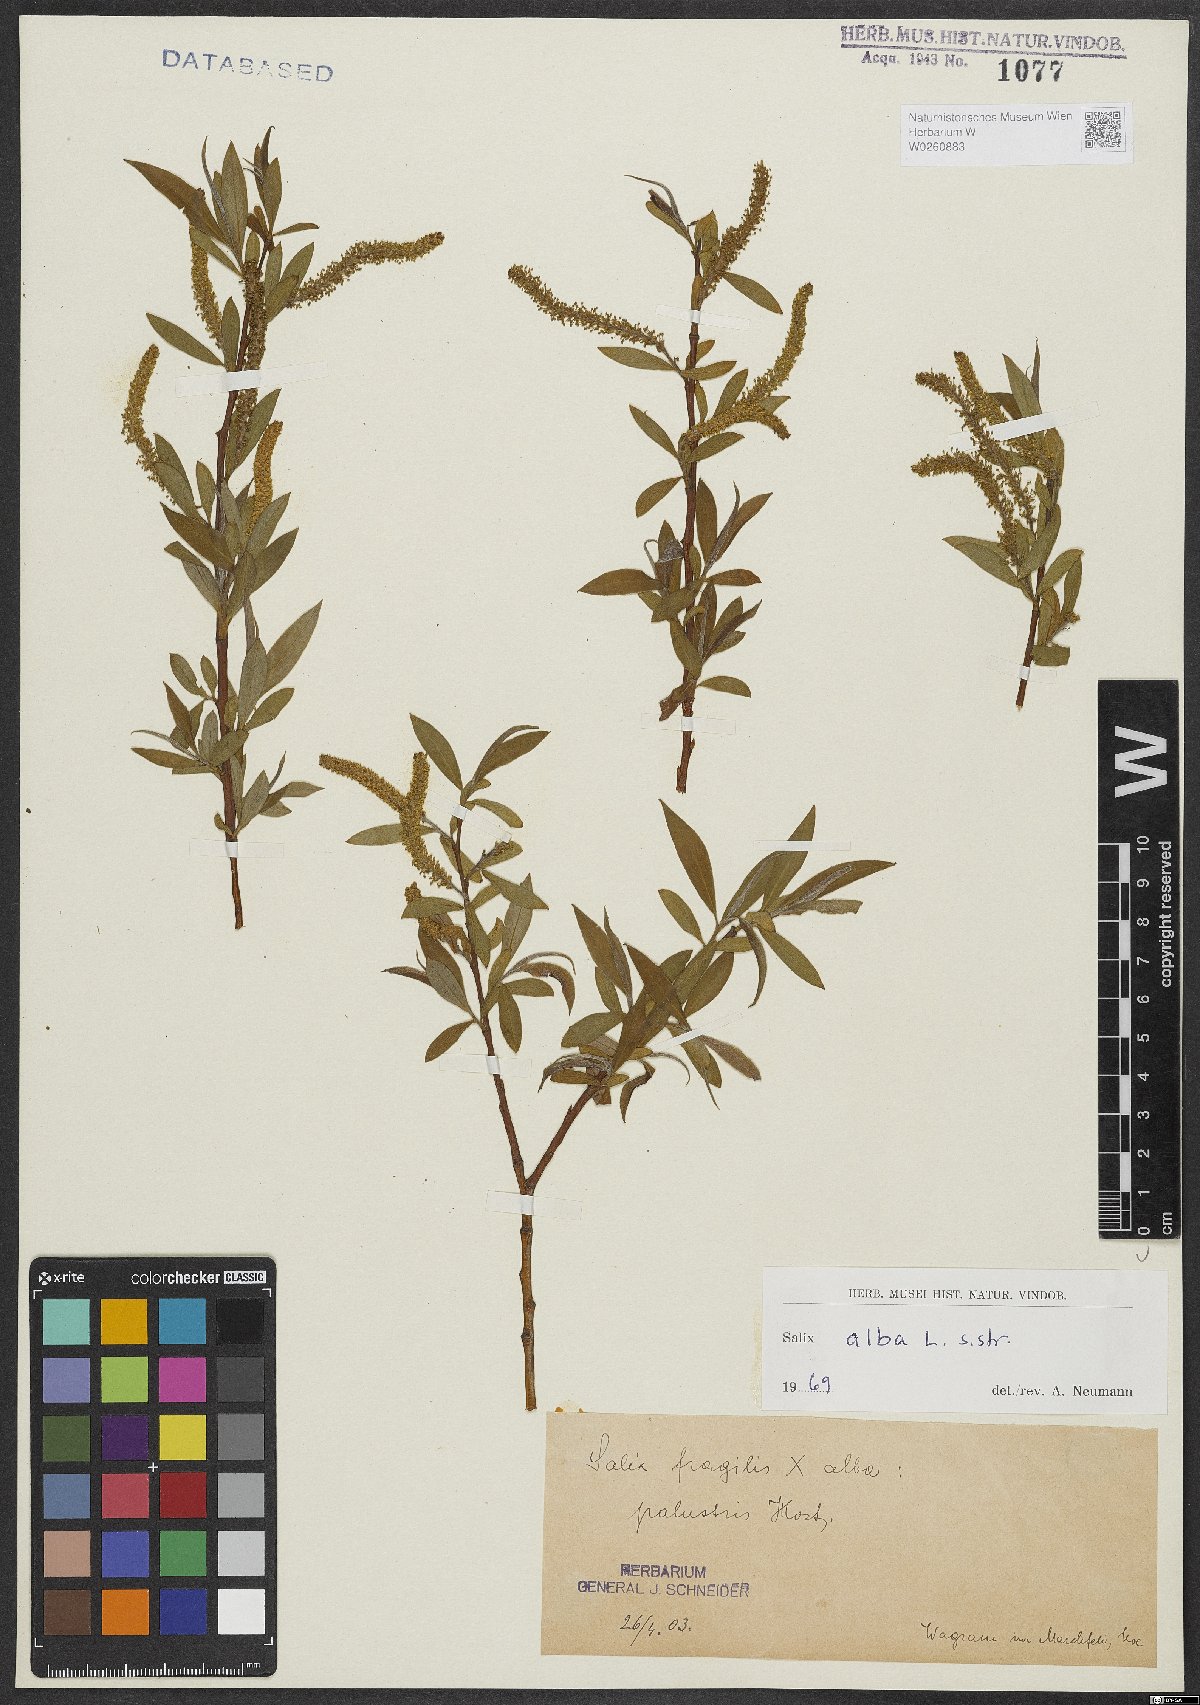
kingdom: Plantae
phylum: Tracheophyta
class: Magnoliopsida
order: Malpighiales
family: Salicaceae
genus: Salix
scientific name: Salix alba
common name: White willow
